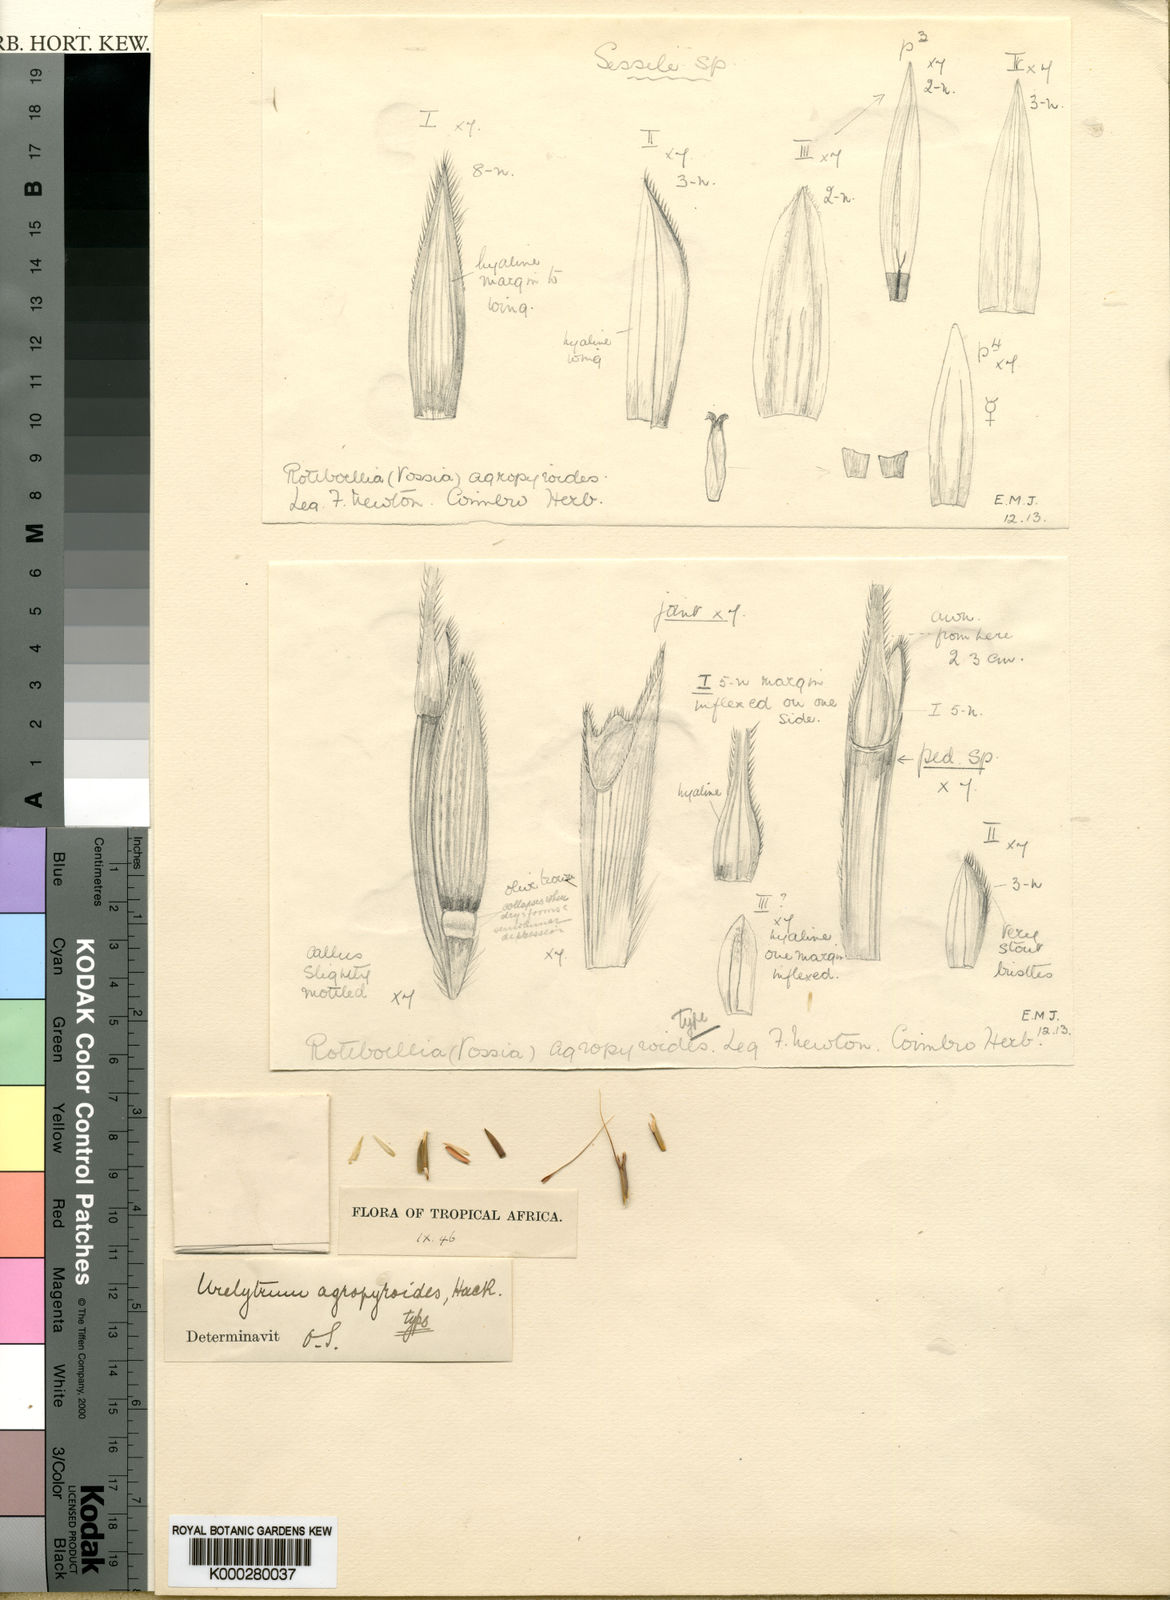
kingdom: Plantae
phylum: Tracheophyta
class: Liliopsida
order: Poales
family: Poaceae
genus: Urelytrum
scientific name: Urelytrum agropyroides
